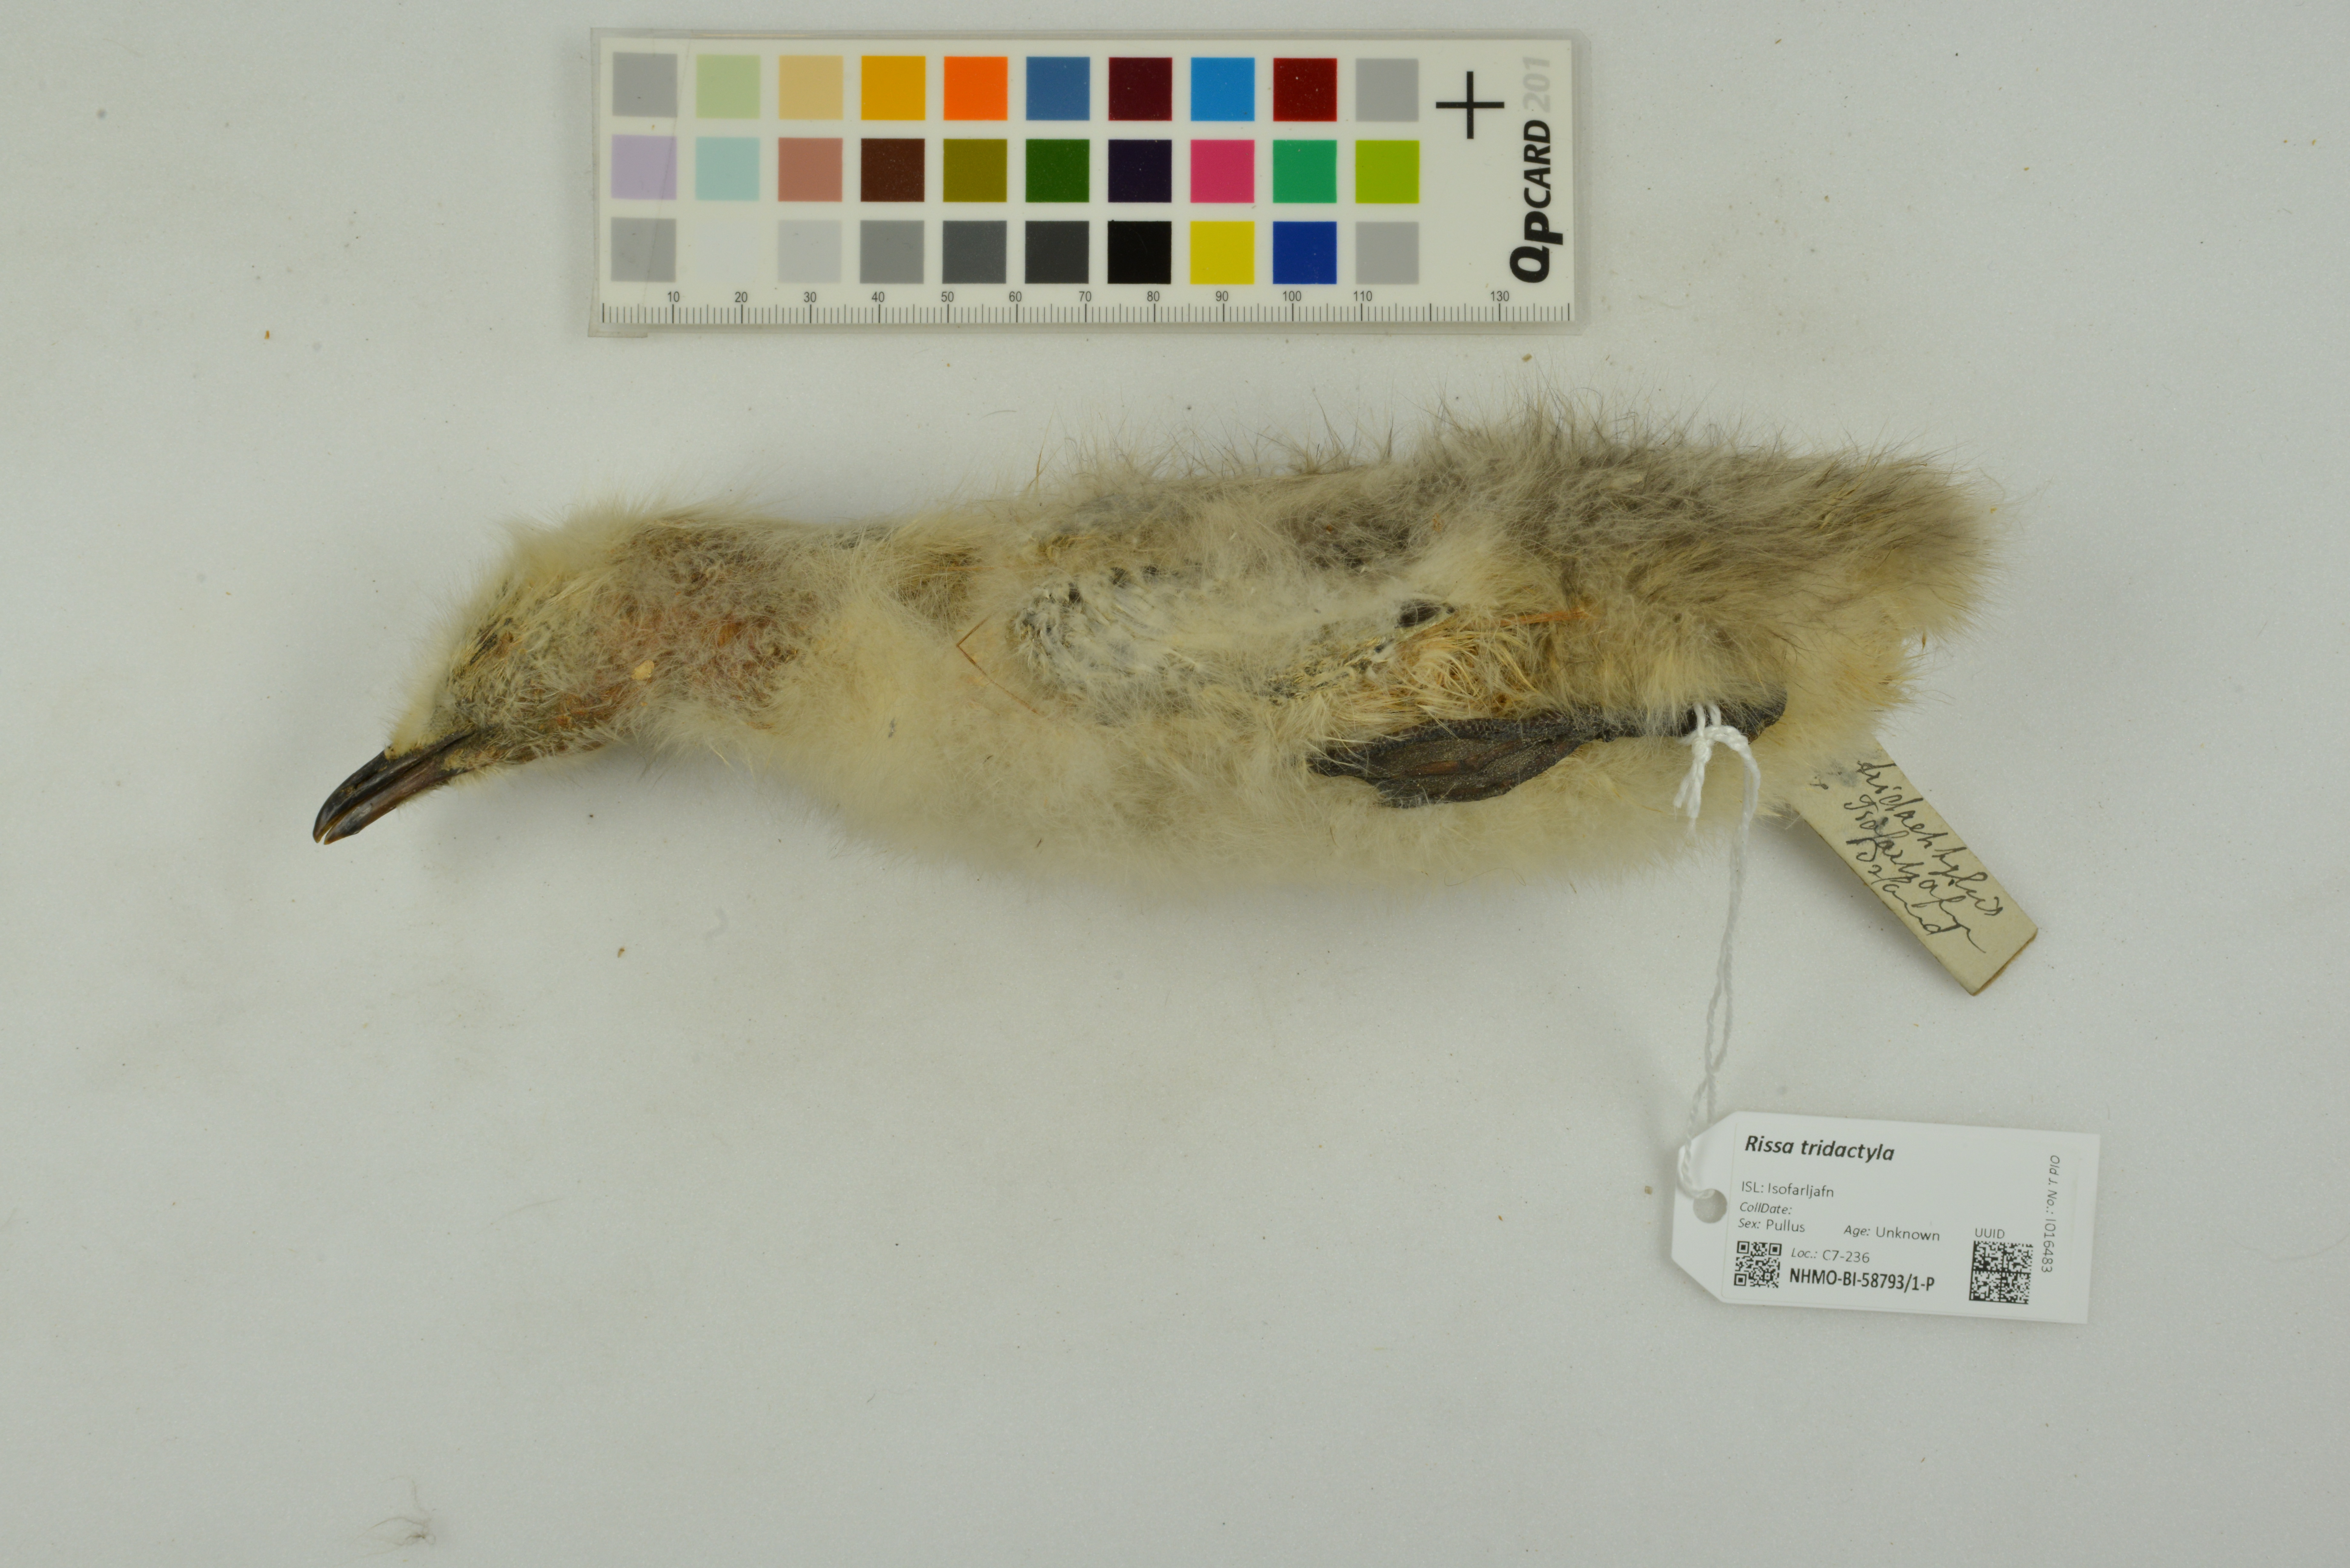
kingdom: Animalia
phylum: Chordata
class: Aves
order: Charadriiformes
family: Laridae
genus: Rissa
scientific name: Rissa tridactyla
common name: Black-legged kittiwake
